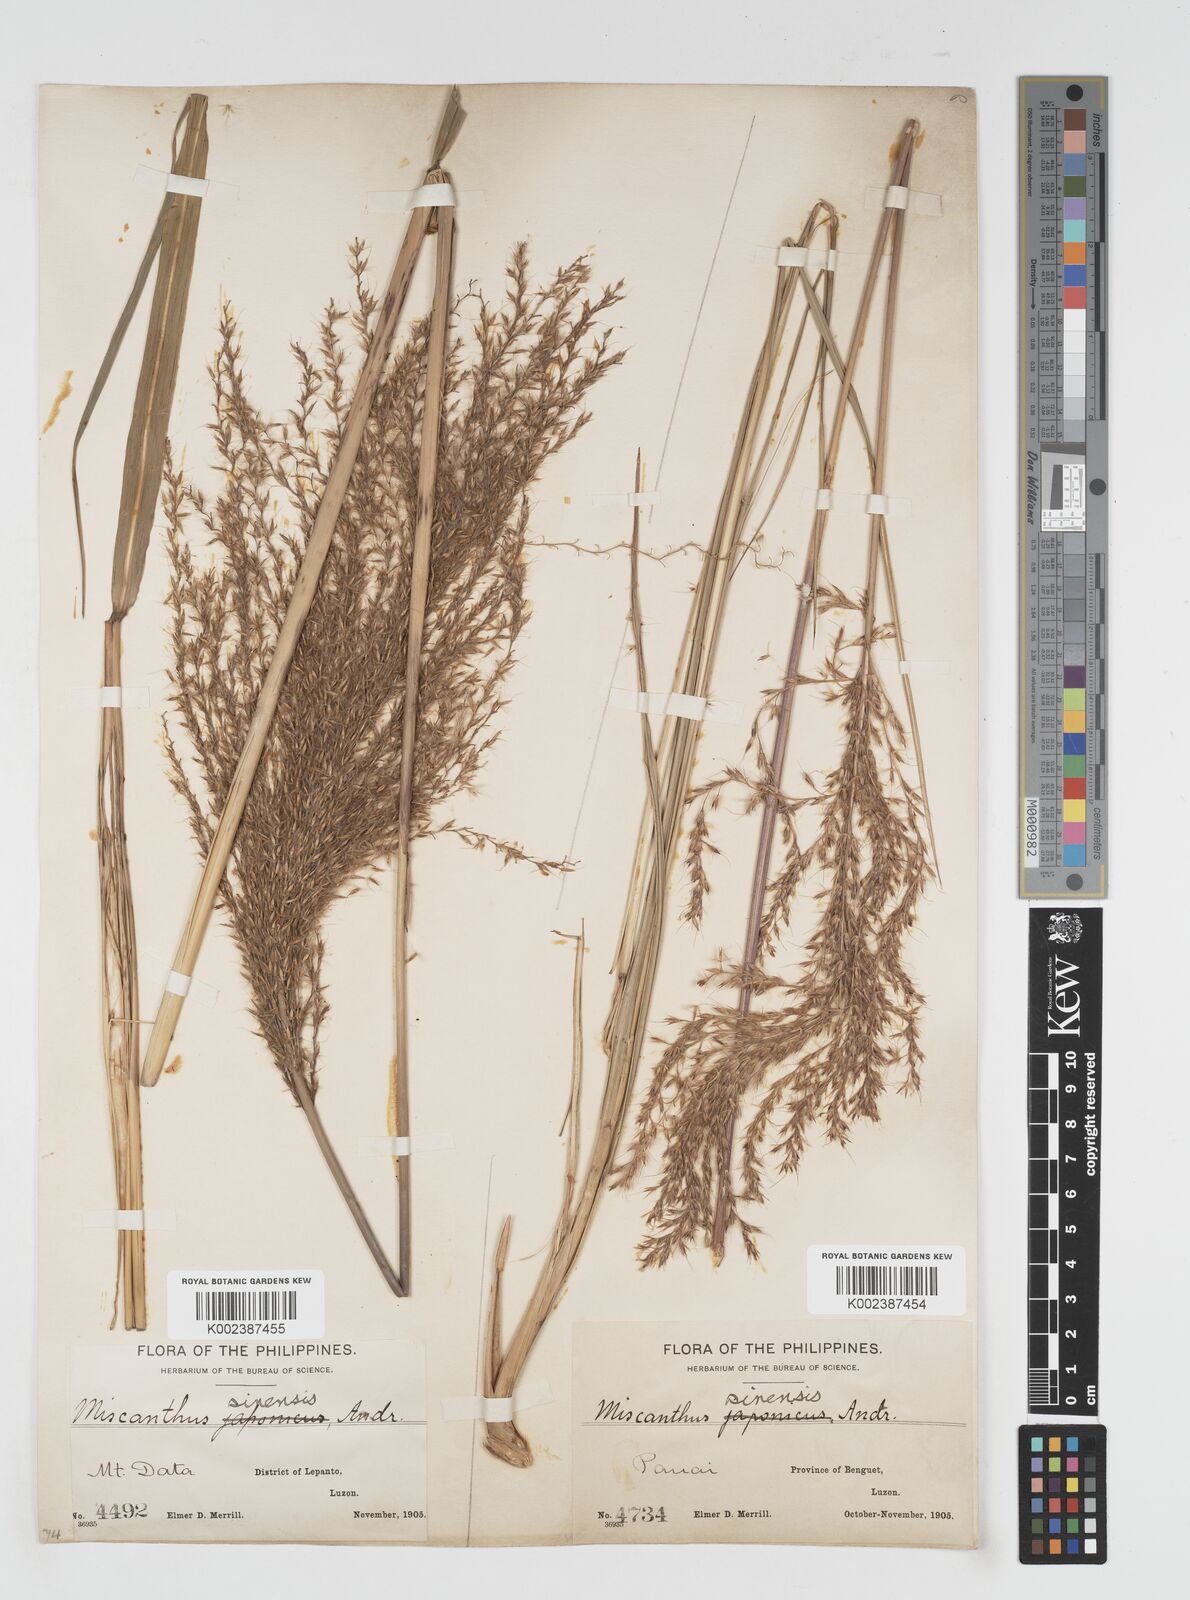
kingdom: Plantae
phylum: Tracheophyta
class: Liliopsida
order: Poales
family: Poaceae
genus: Miscanthus
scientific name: Miscanthus
